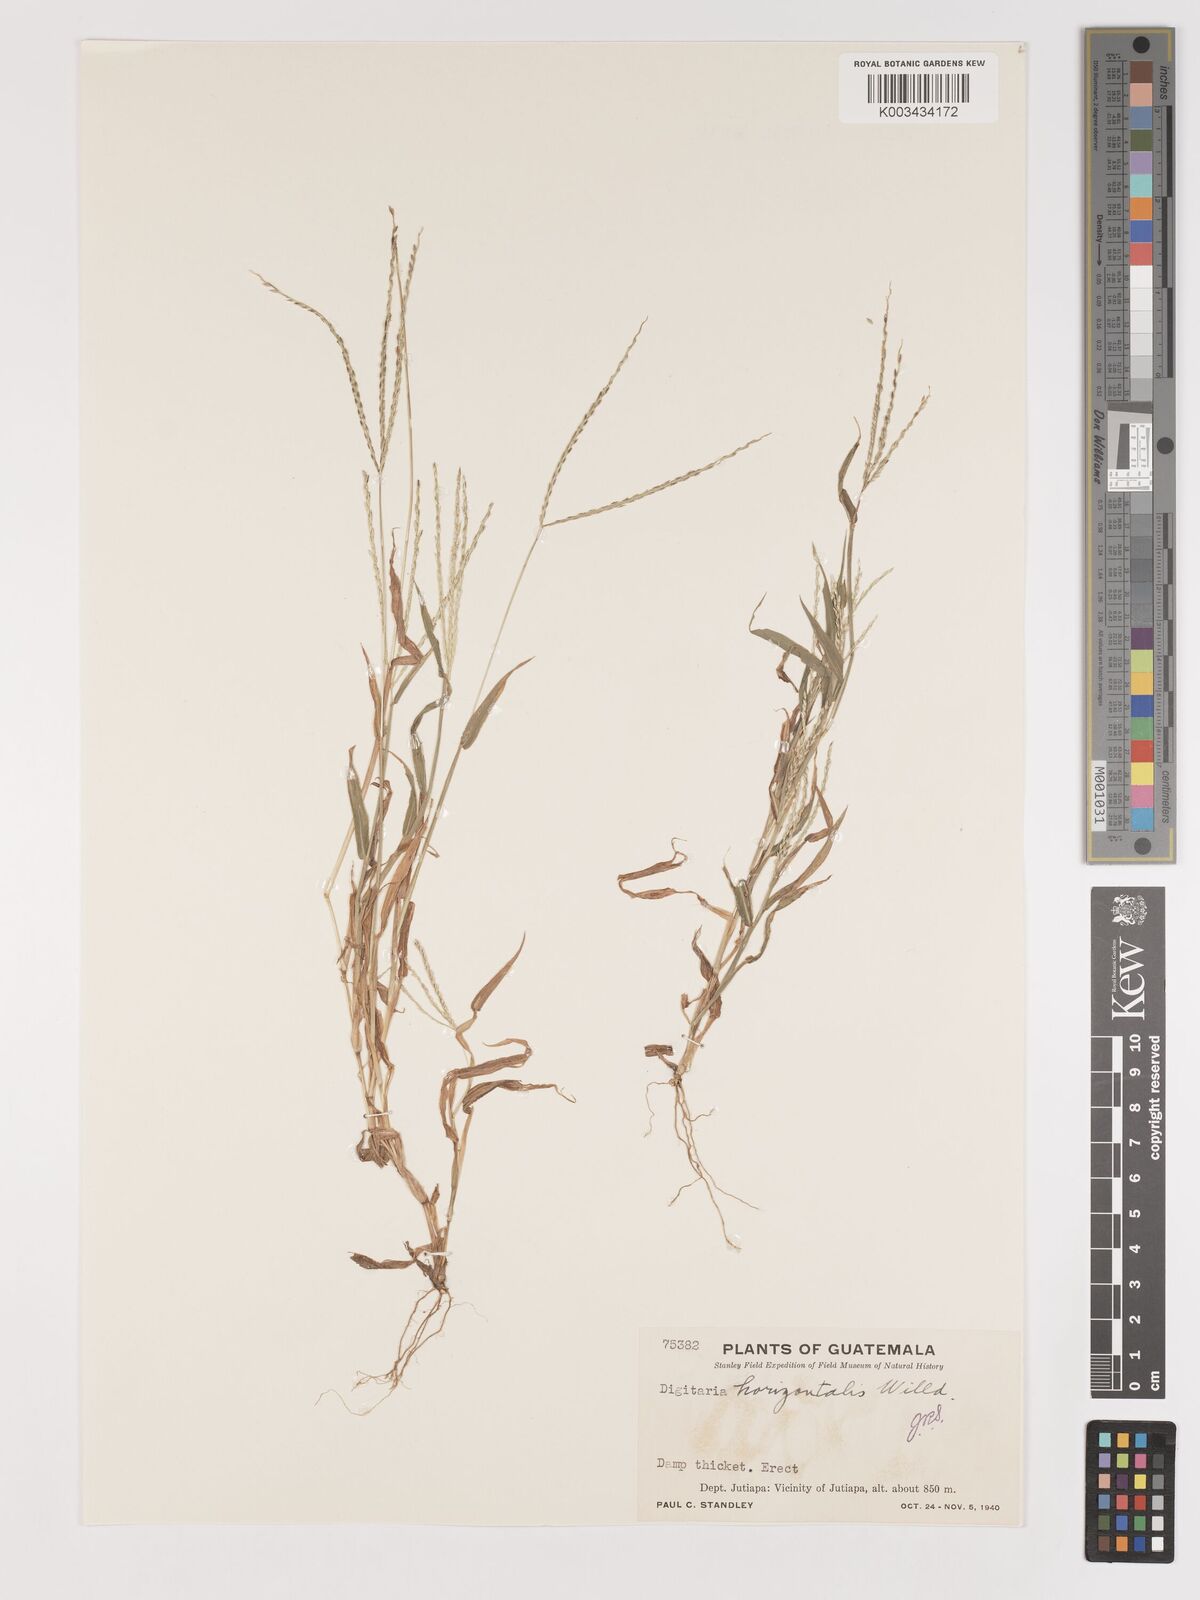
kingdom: Plantae
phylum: Tracheophyta
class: Liliopsida
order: Poales
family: Poaceae
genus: Digitaria
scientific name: Digitaria nuda
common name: Naked crabgrass
